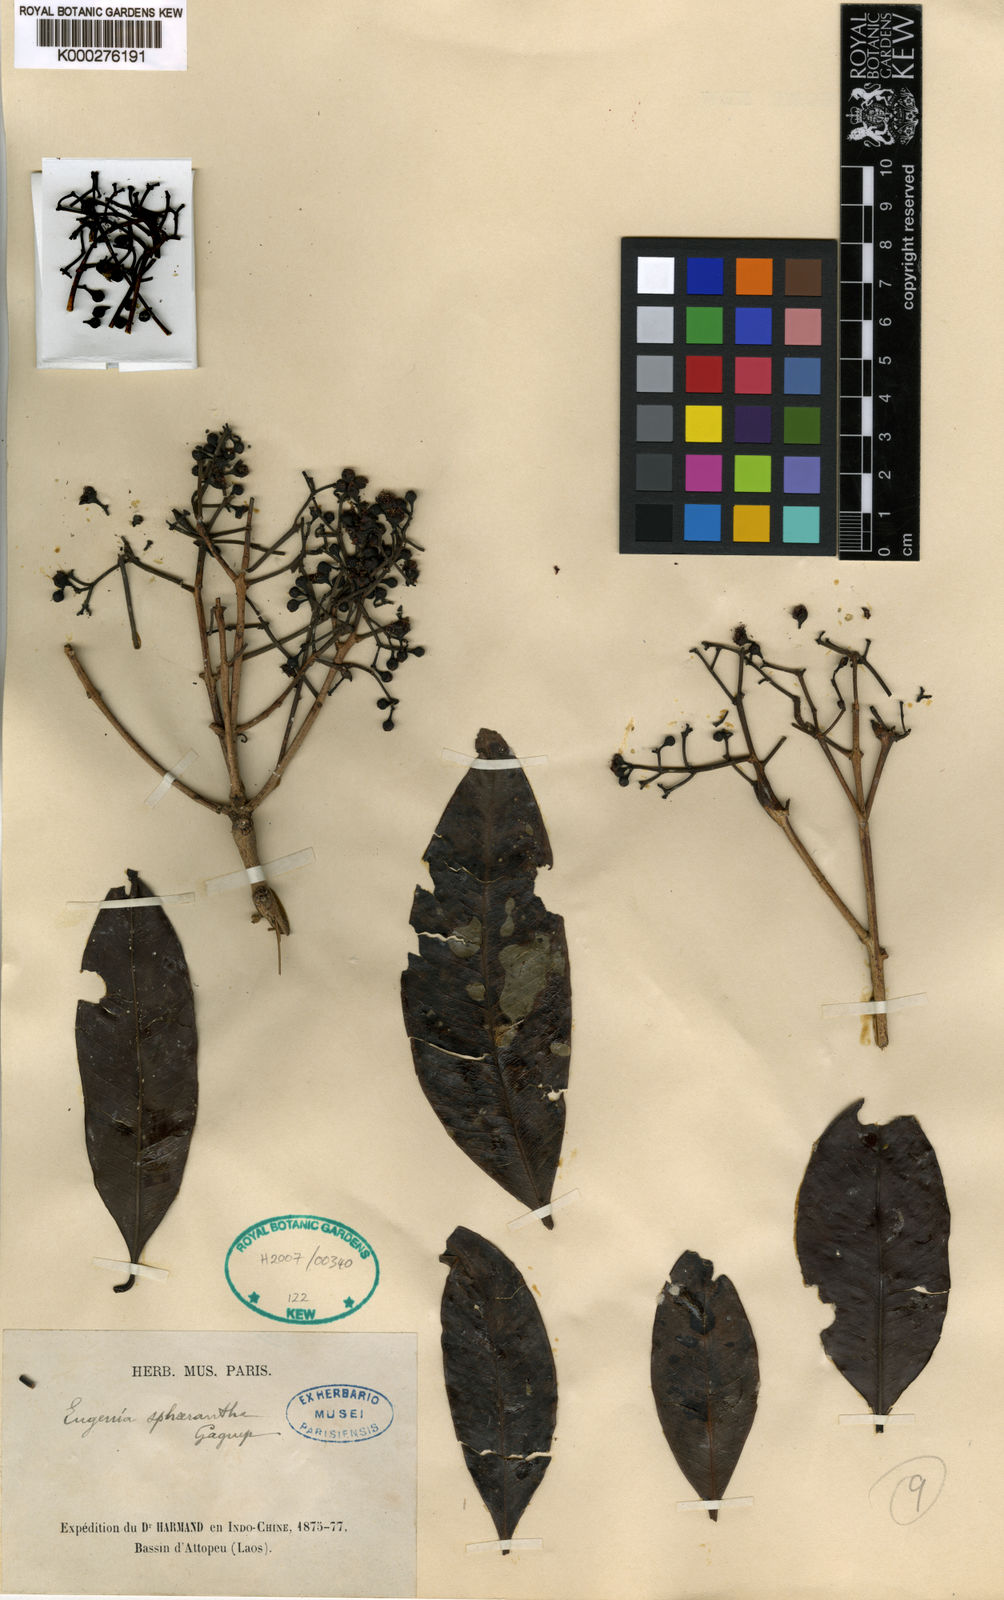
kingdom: Plantae
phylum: Tracheophyta
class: Magnoliopsida
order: Myrtales
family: Myrtaceae
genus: Syzygium
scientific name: Syzygium
